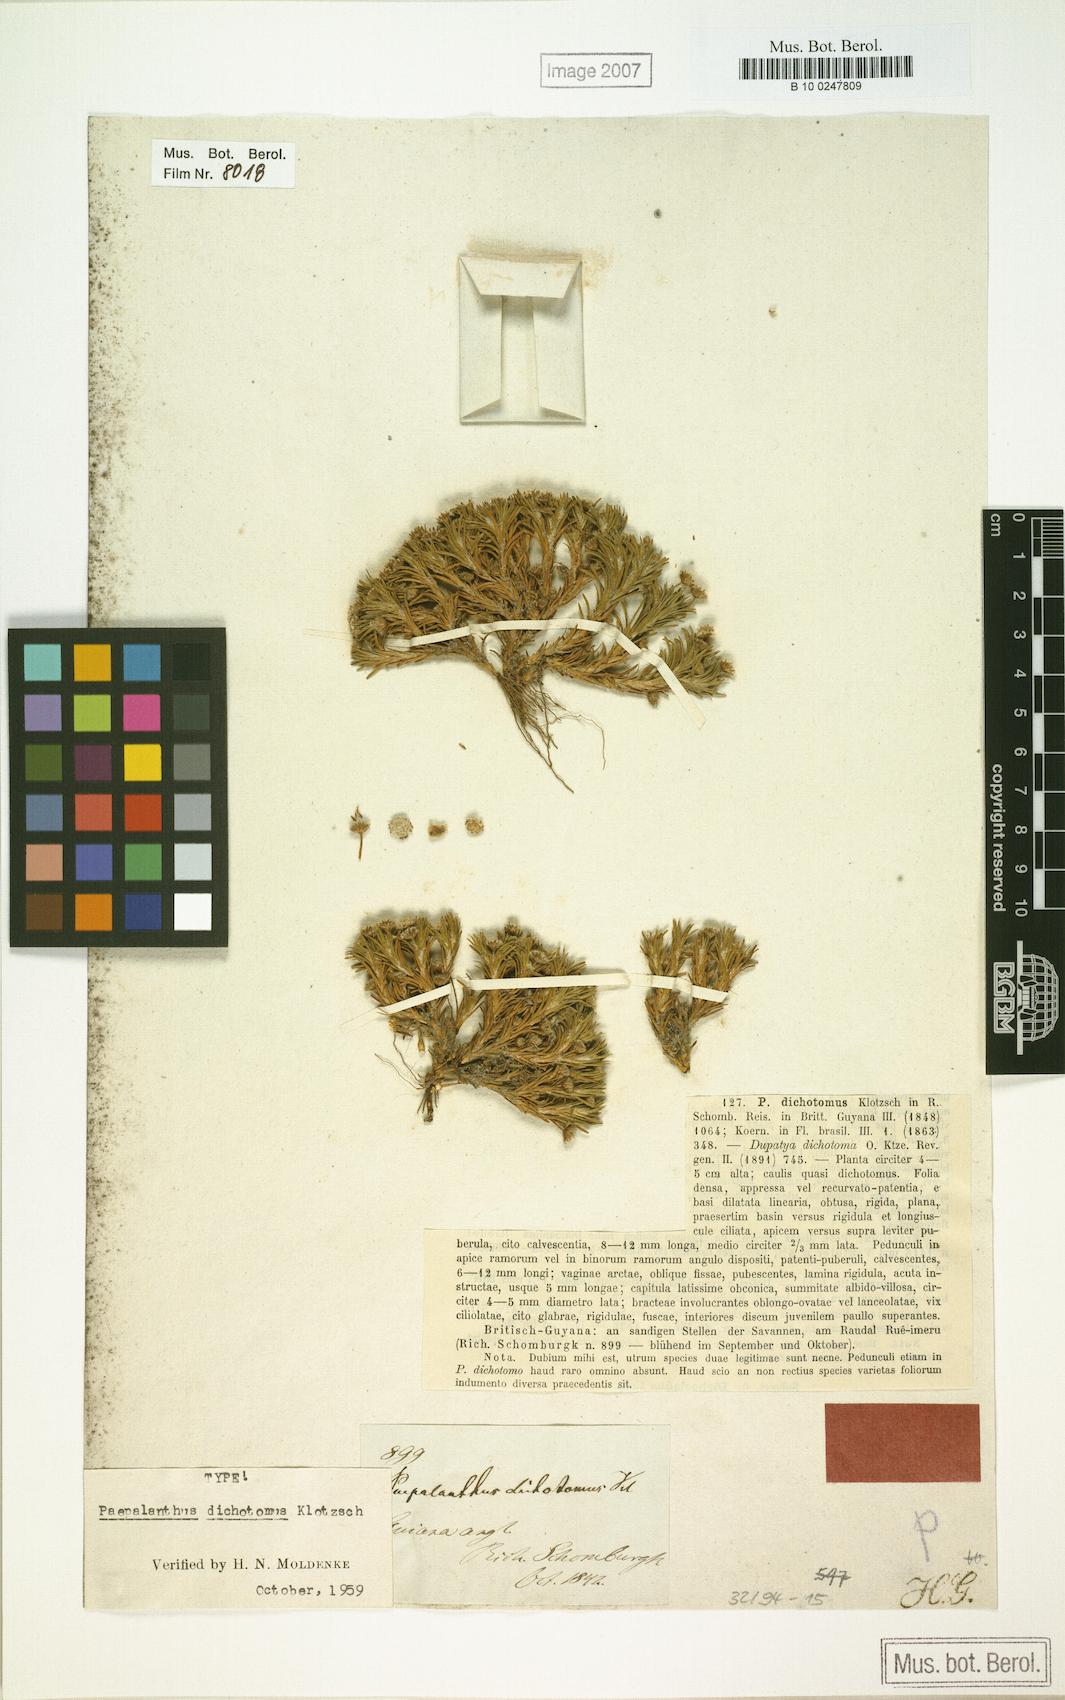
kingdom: Plantae
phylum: Tracheophyta
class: Liliopsida
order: Poales
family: Eriocaulaceae
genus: Paepalanthus
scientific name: Paepalanthus dichotomus
